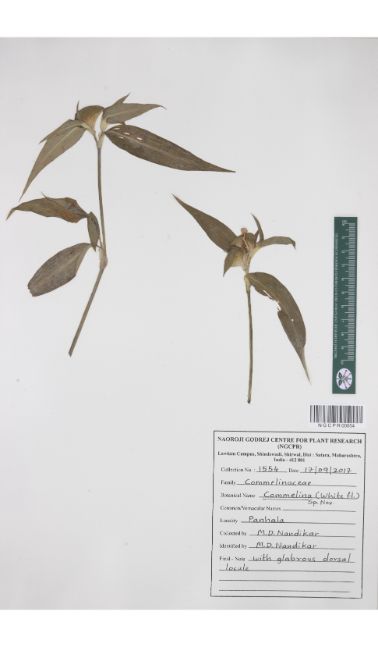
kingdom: Plantae
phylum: Tracheophyta
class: Liliopsida
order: Commelinales
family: Commelinaceae
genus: Commelina
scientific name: Commelina undulata
